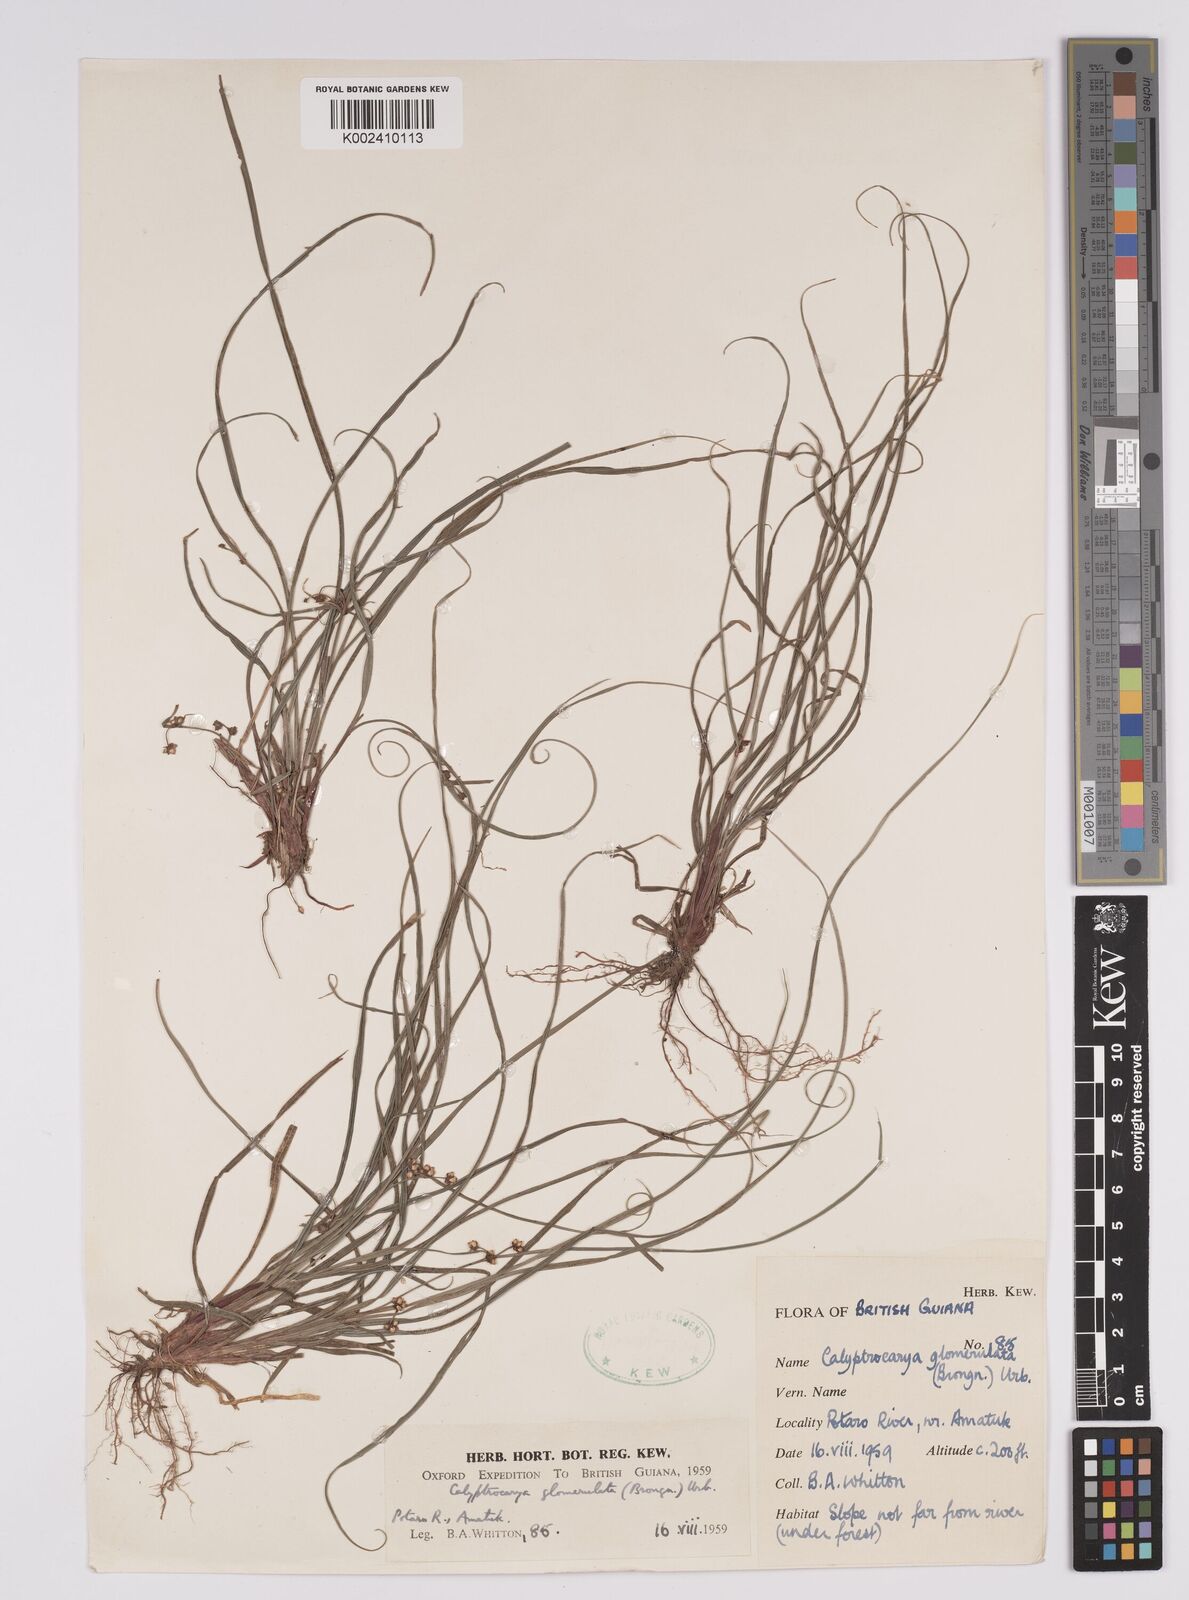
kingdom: Plantae
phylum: Tracheophyta
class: Liliopsida
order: Poales
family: Cyperaceae
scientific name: Cyperaceae
